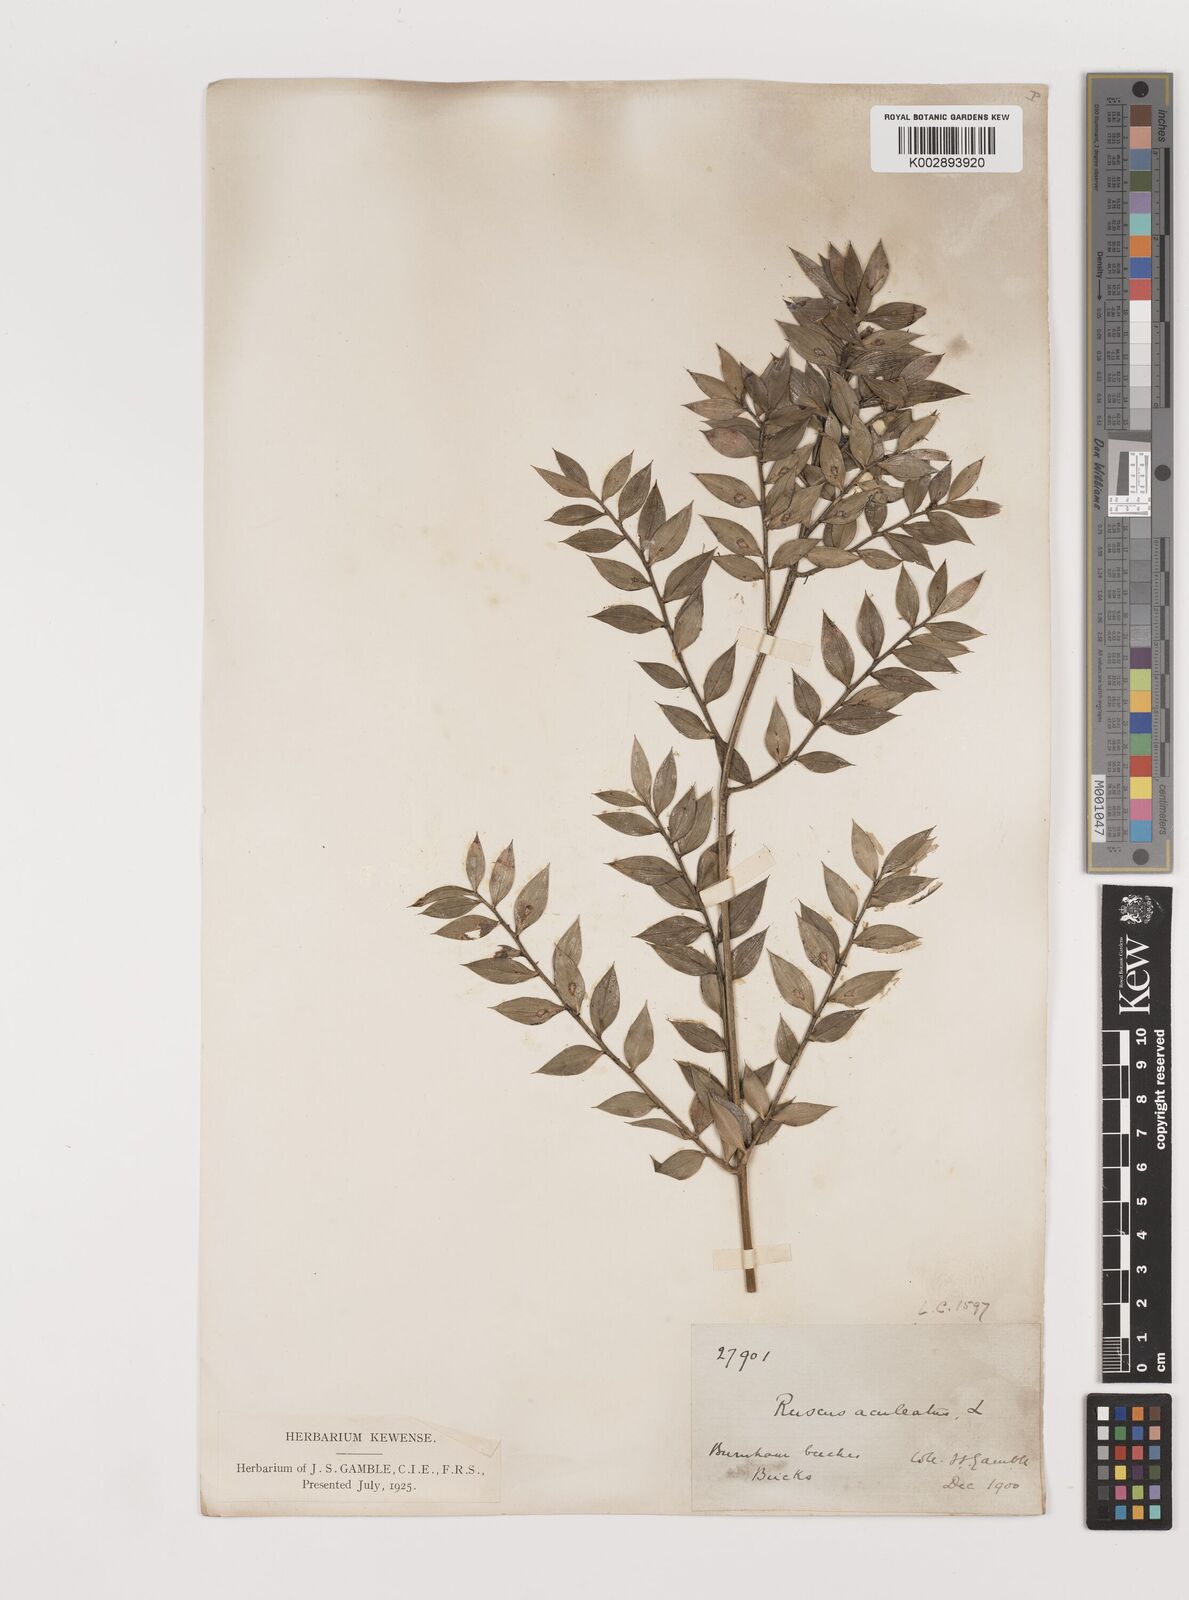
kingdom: Plantae
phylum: Tracheophyta
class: Liliopsida
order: Asparagales
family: Asparagaceae
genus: Ruscus
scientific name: Ruscus aculeatus
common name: Butcher's-broom
